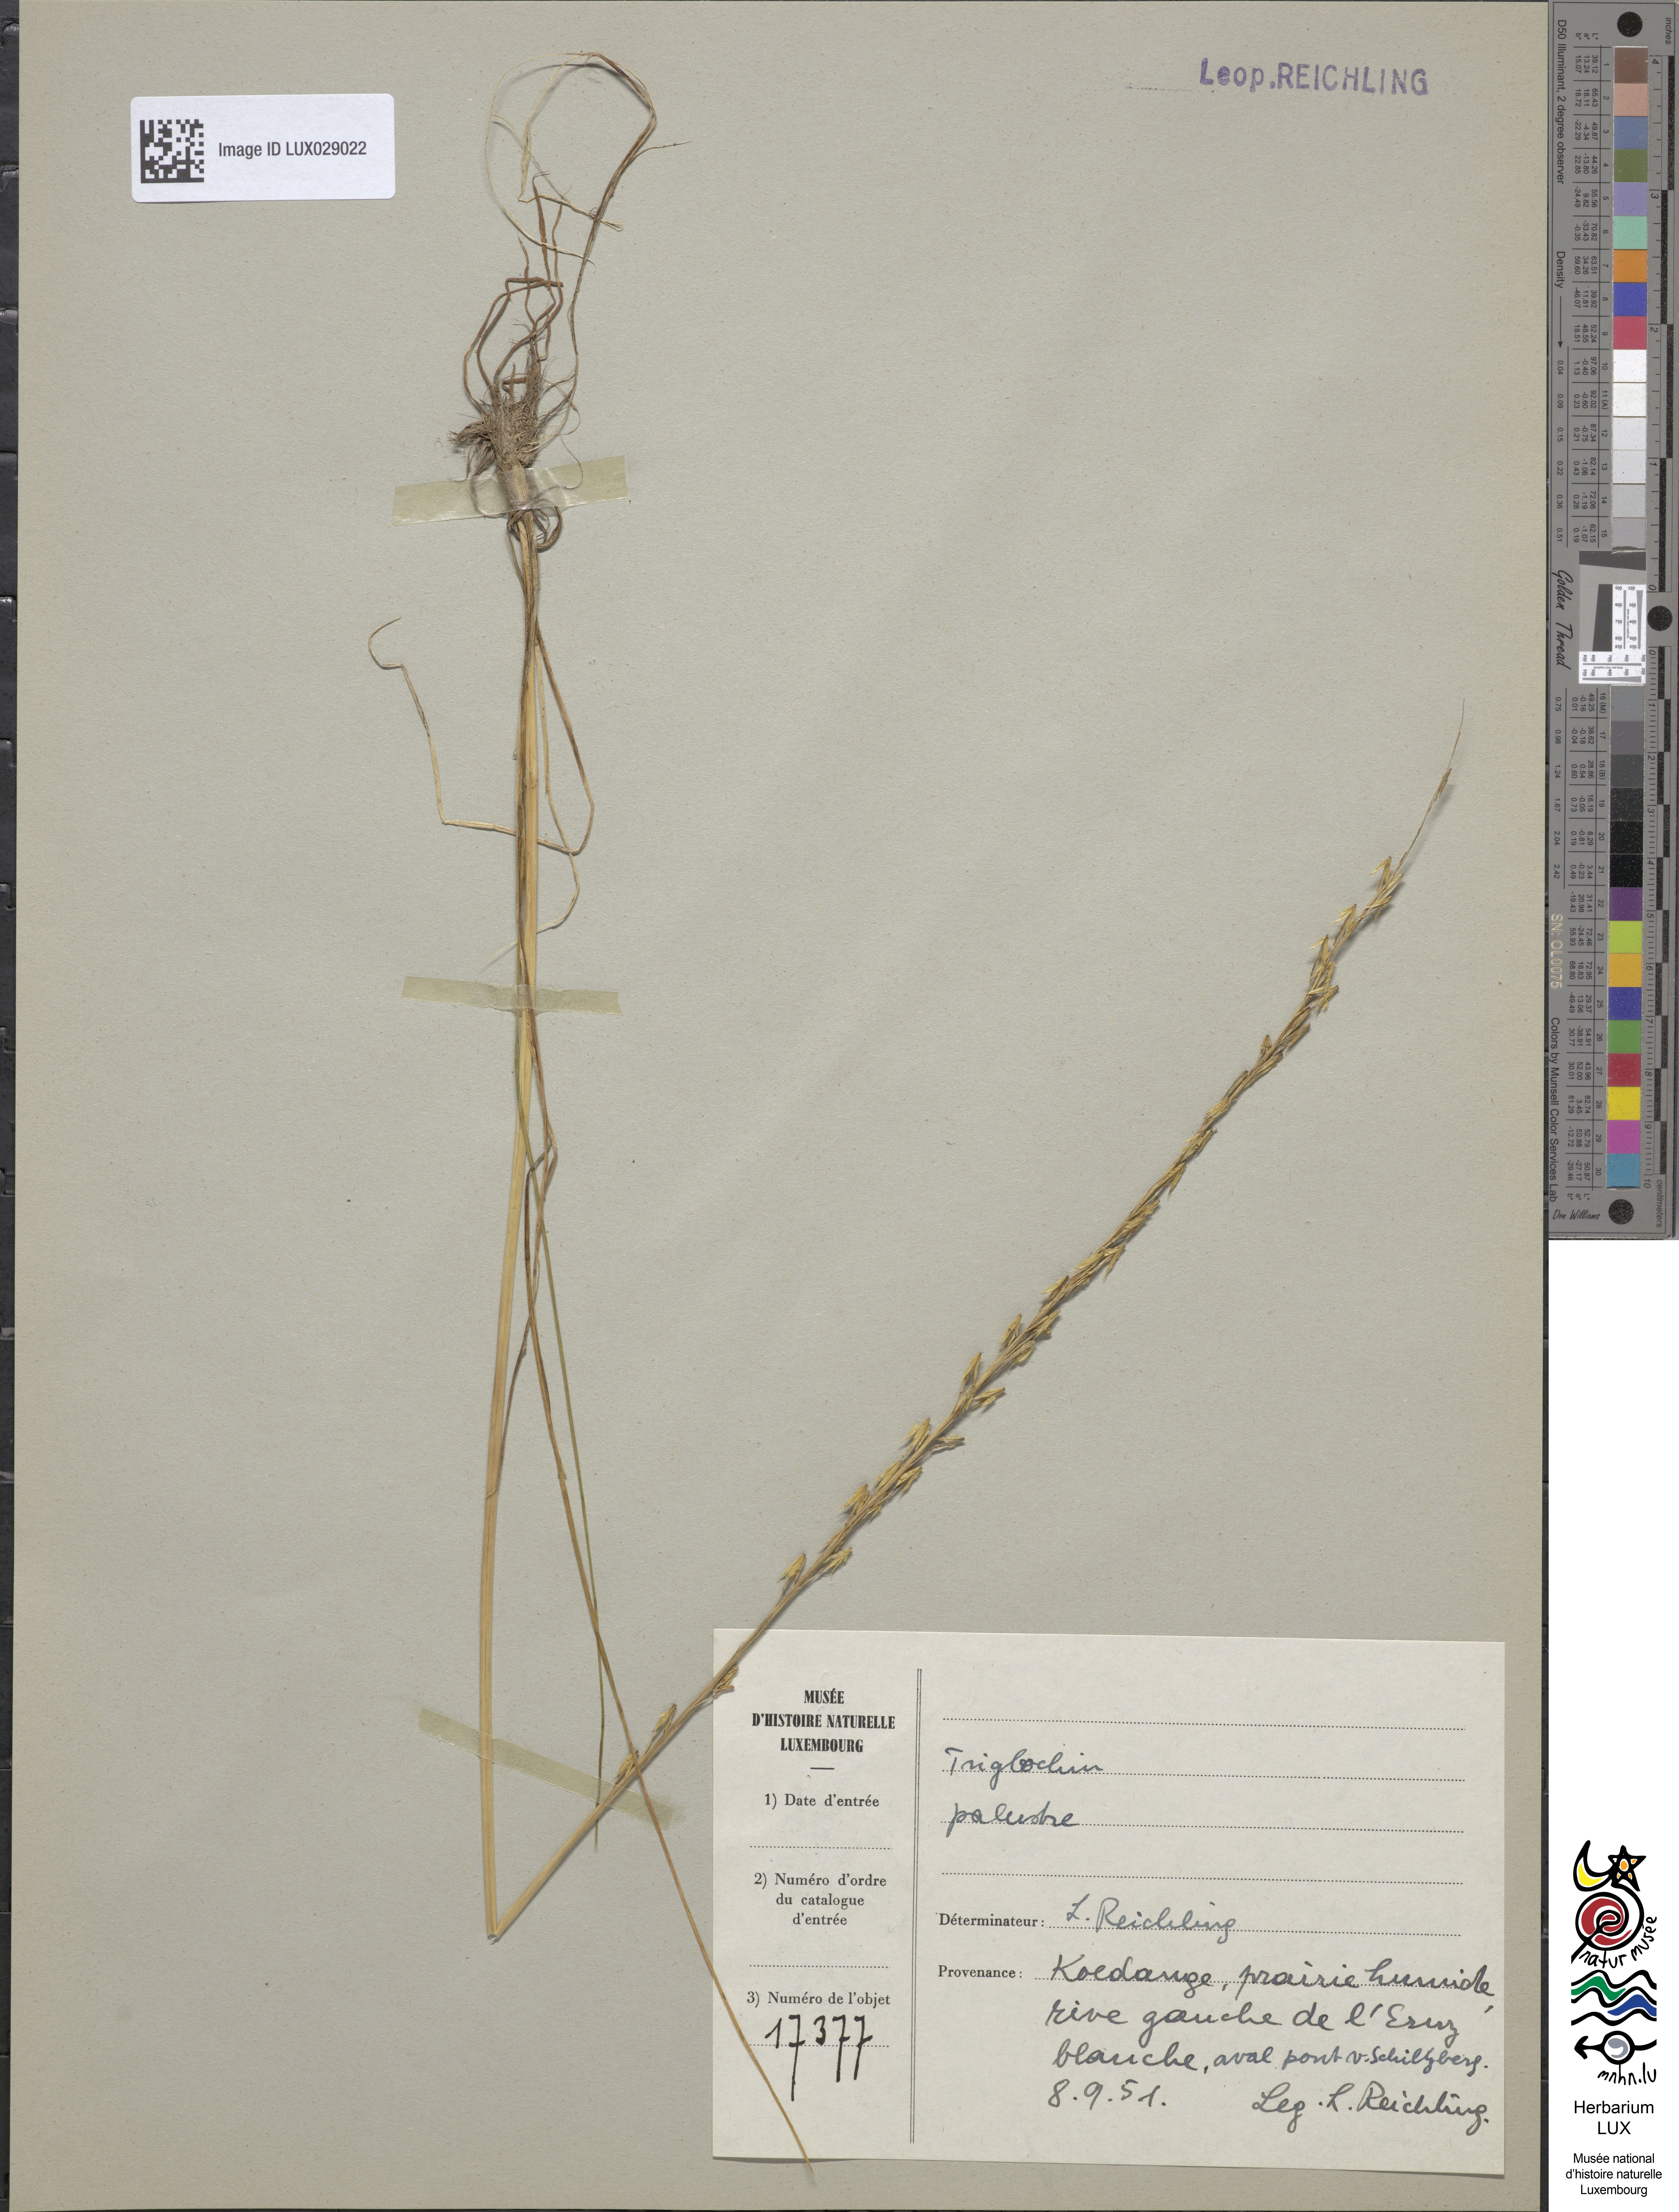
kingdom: Plantae
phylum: Tracheophyta
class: Liliopsida
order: Alismatales
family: Juncaginaceae
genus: Triglochin
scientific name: Triglochin palustris
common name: Marsh arrowgrass
